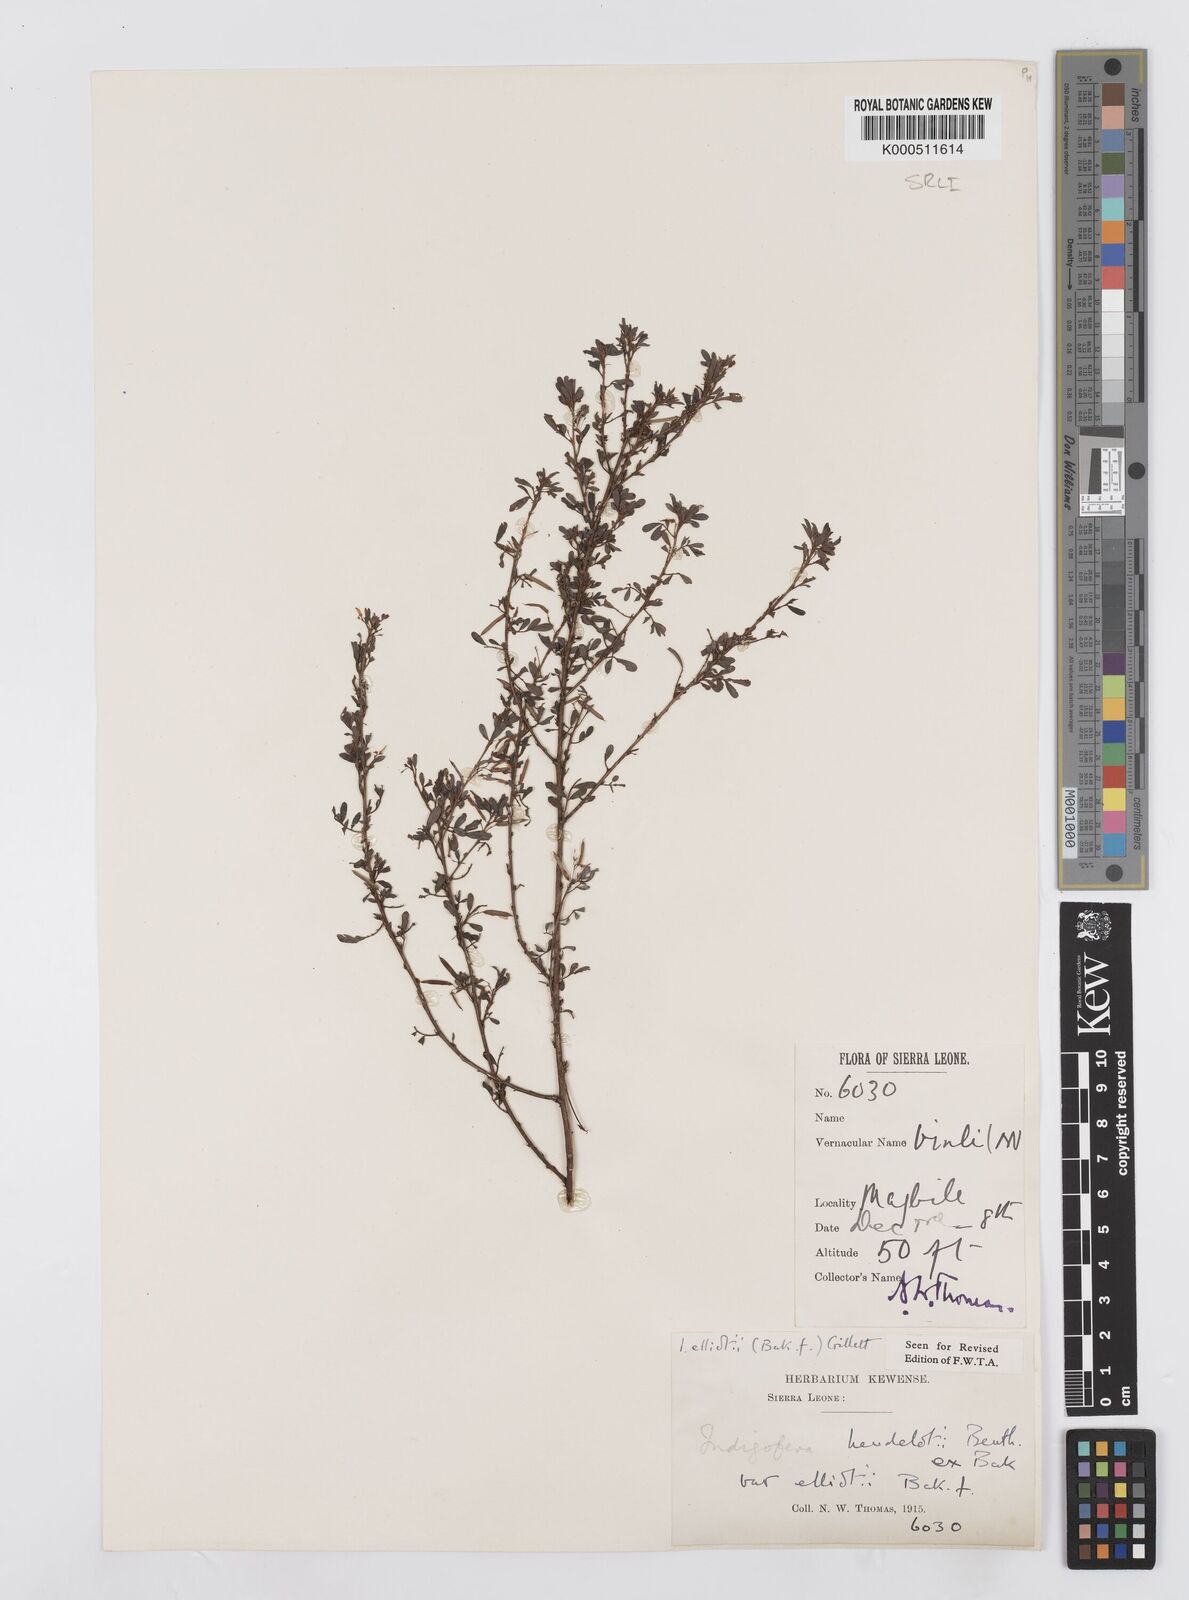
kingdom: Plantae
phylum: Tracheophyta
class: Magnoliopsida
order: Fabales
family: Fabaceae
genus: Indigofera
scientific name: Indigofera elliotii
